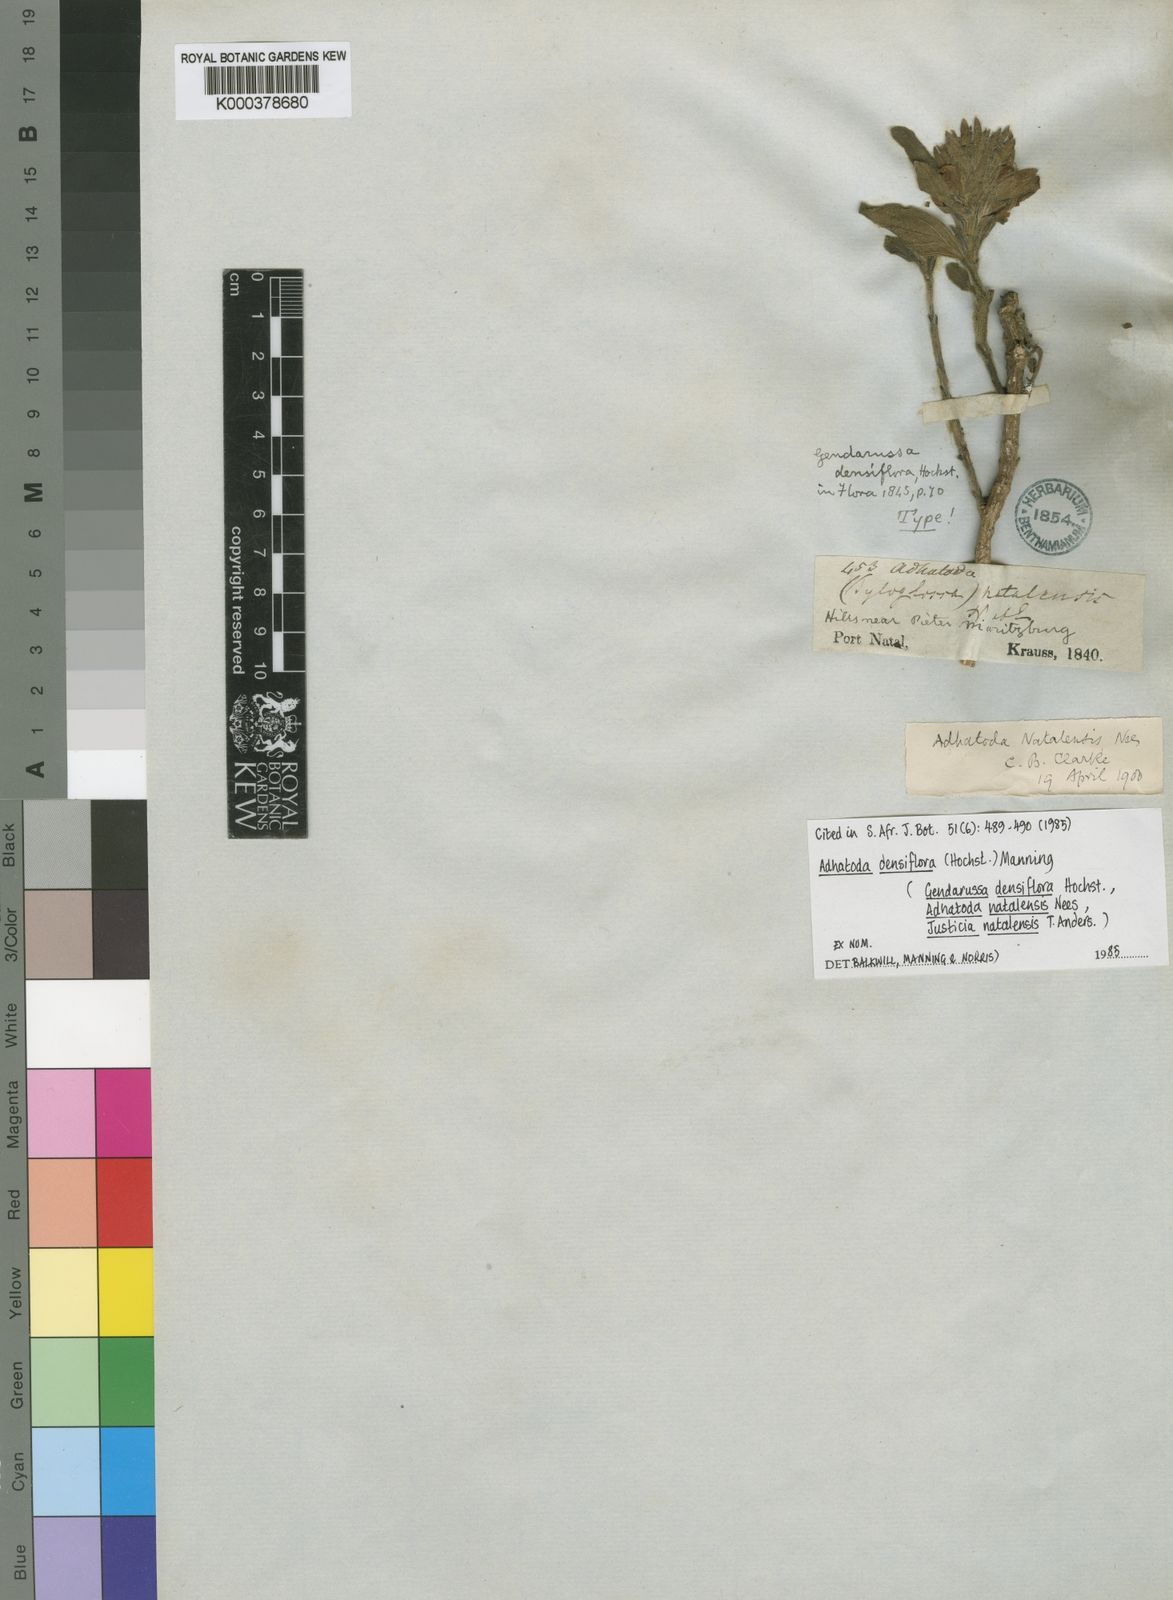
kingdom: Plantae
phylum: Tracheophyta
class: Magnoliopsida
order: Lamiales
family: Acanthaceae
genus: Justicia
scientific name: Justicia densiflora
